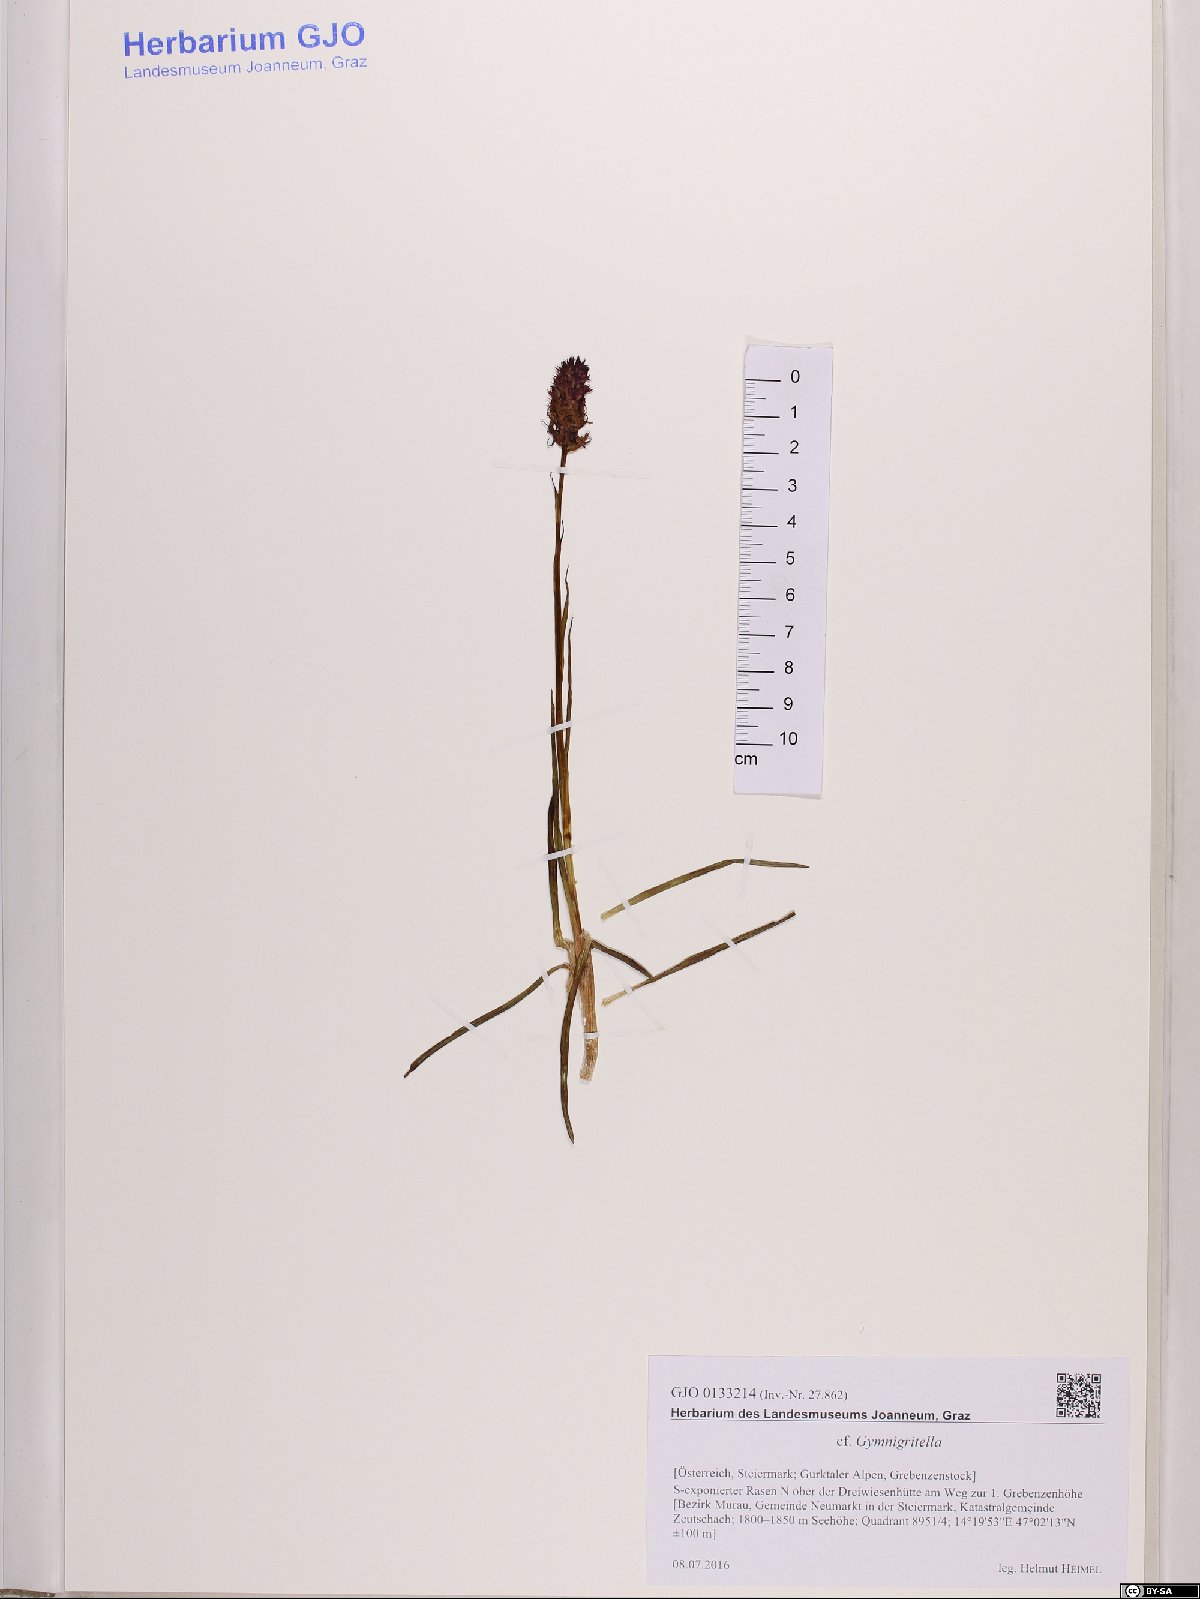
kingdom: Plantae
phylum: Tracheophyta
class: Liliopsida
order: Asparagales
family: Orchidaceae
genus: Gymnadenia
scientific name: Gymnadenia
